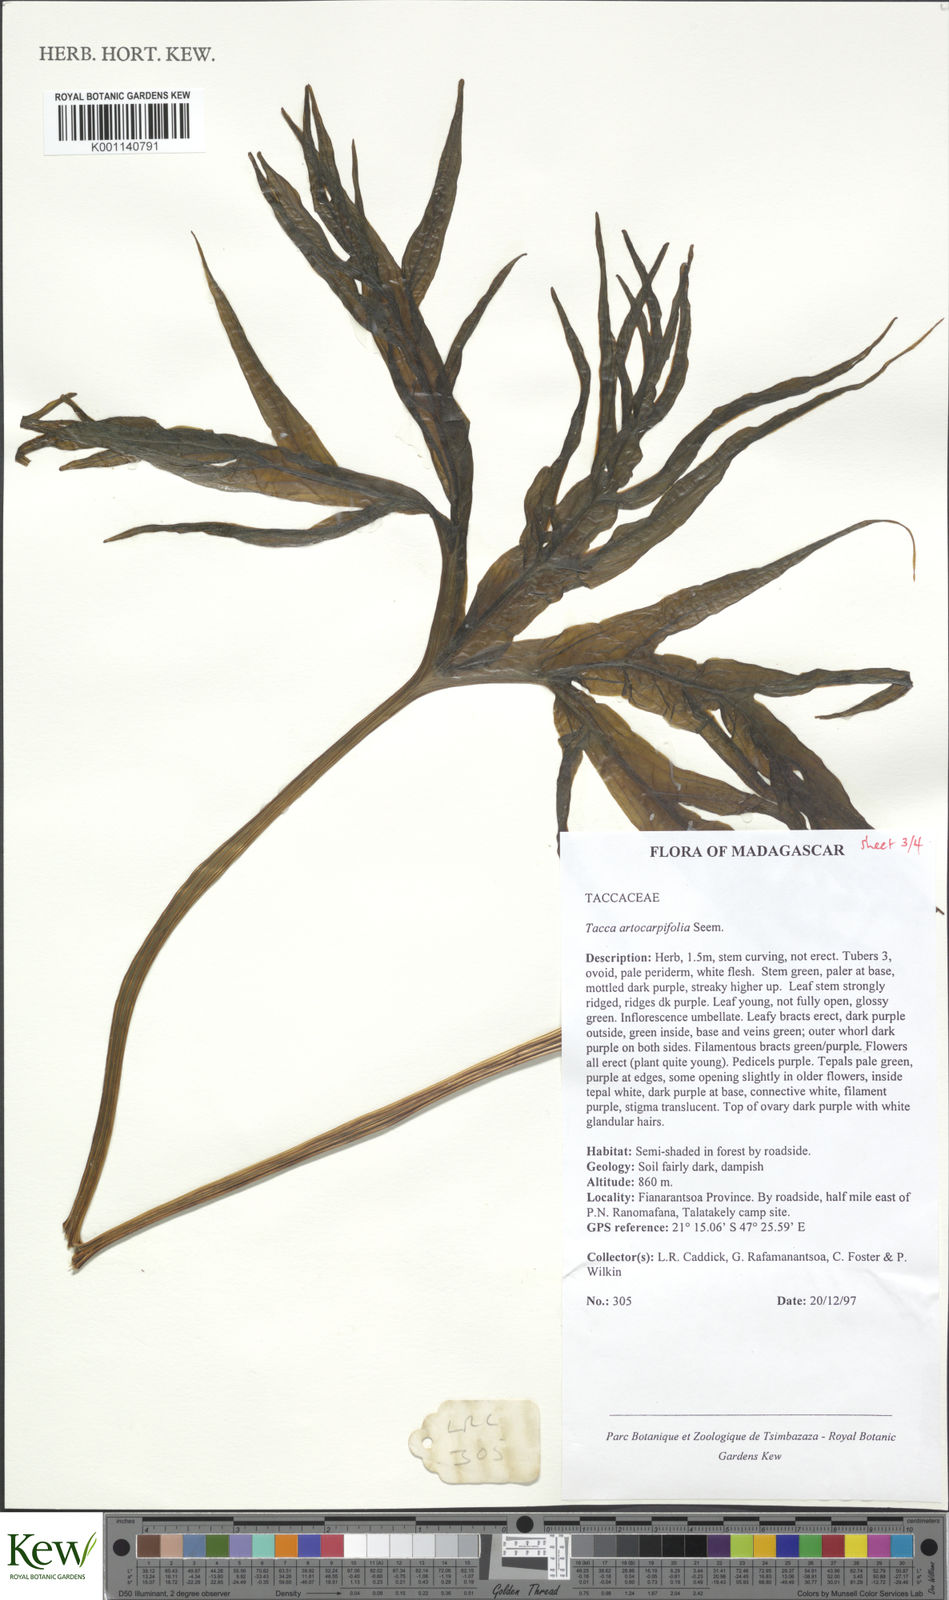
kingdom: Plantae
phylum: Tracheophyta
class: Liliopsida
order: Dioscoreales
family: Dioscoreaceae
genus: Tacca
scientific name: Tacca leontopetaloides
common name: Arrowroot
